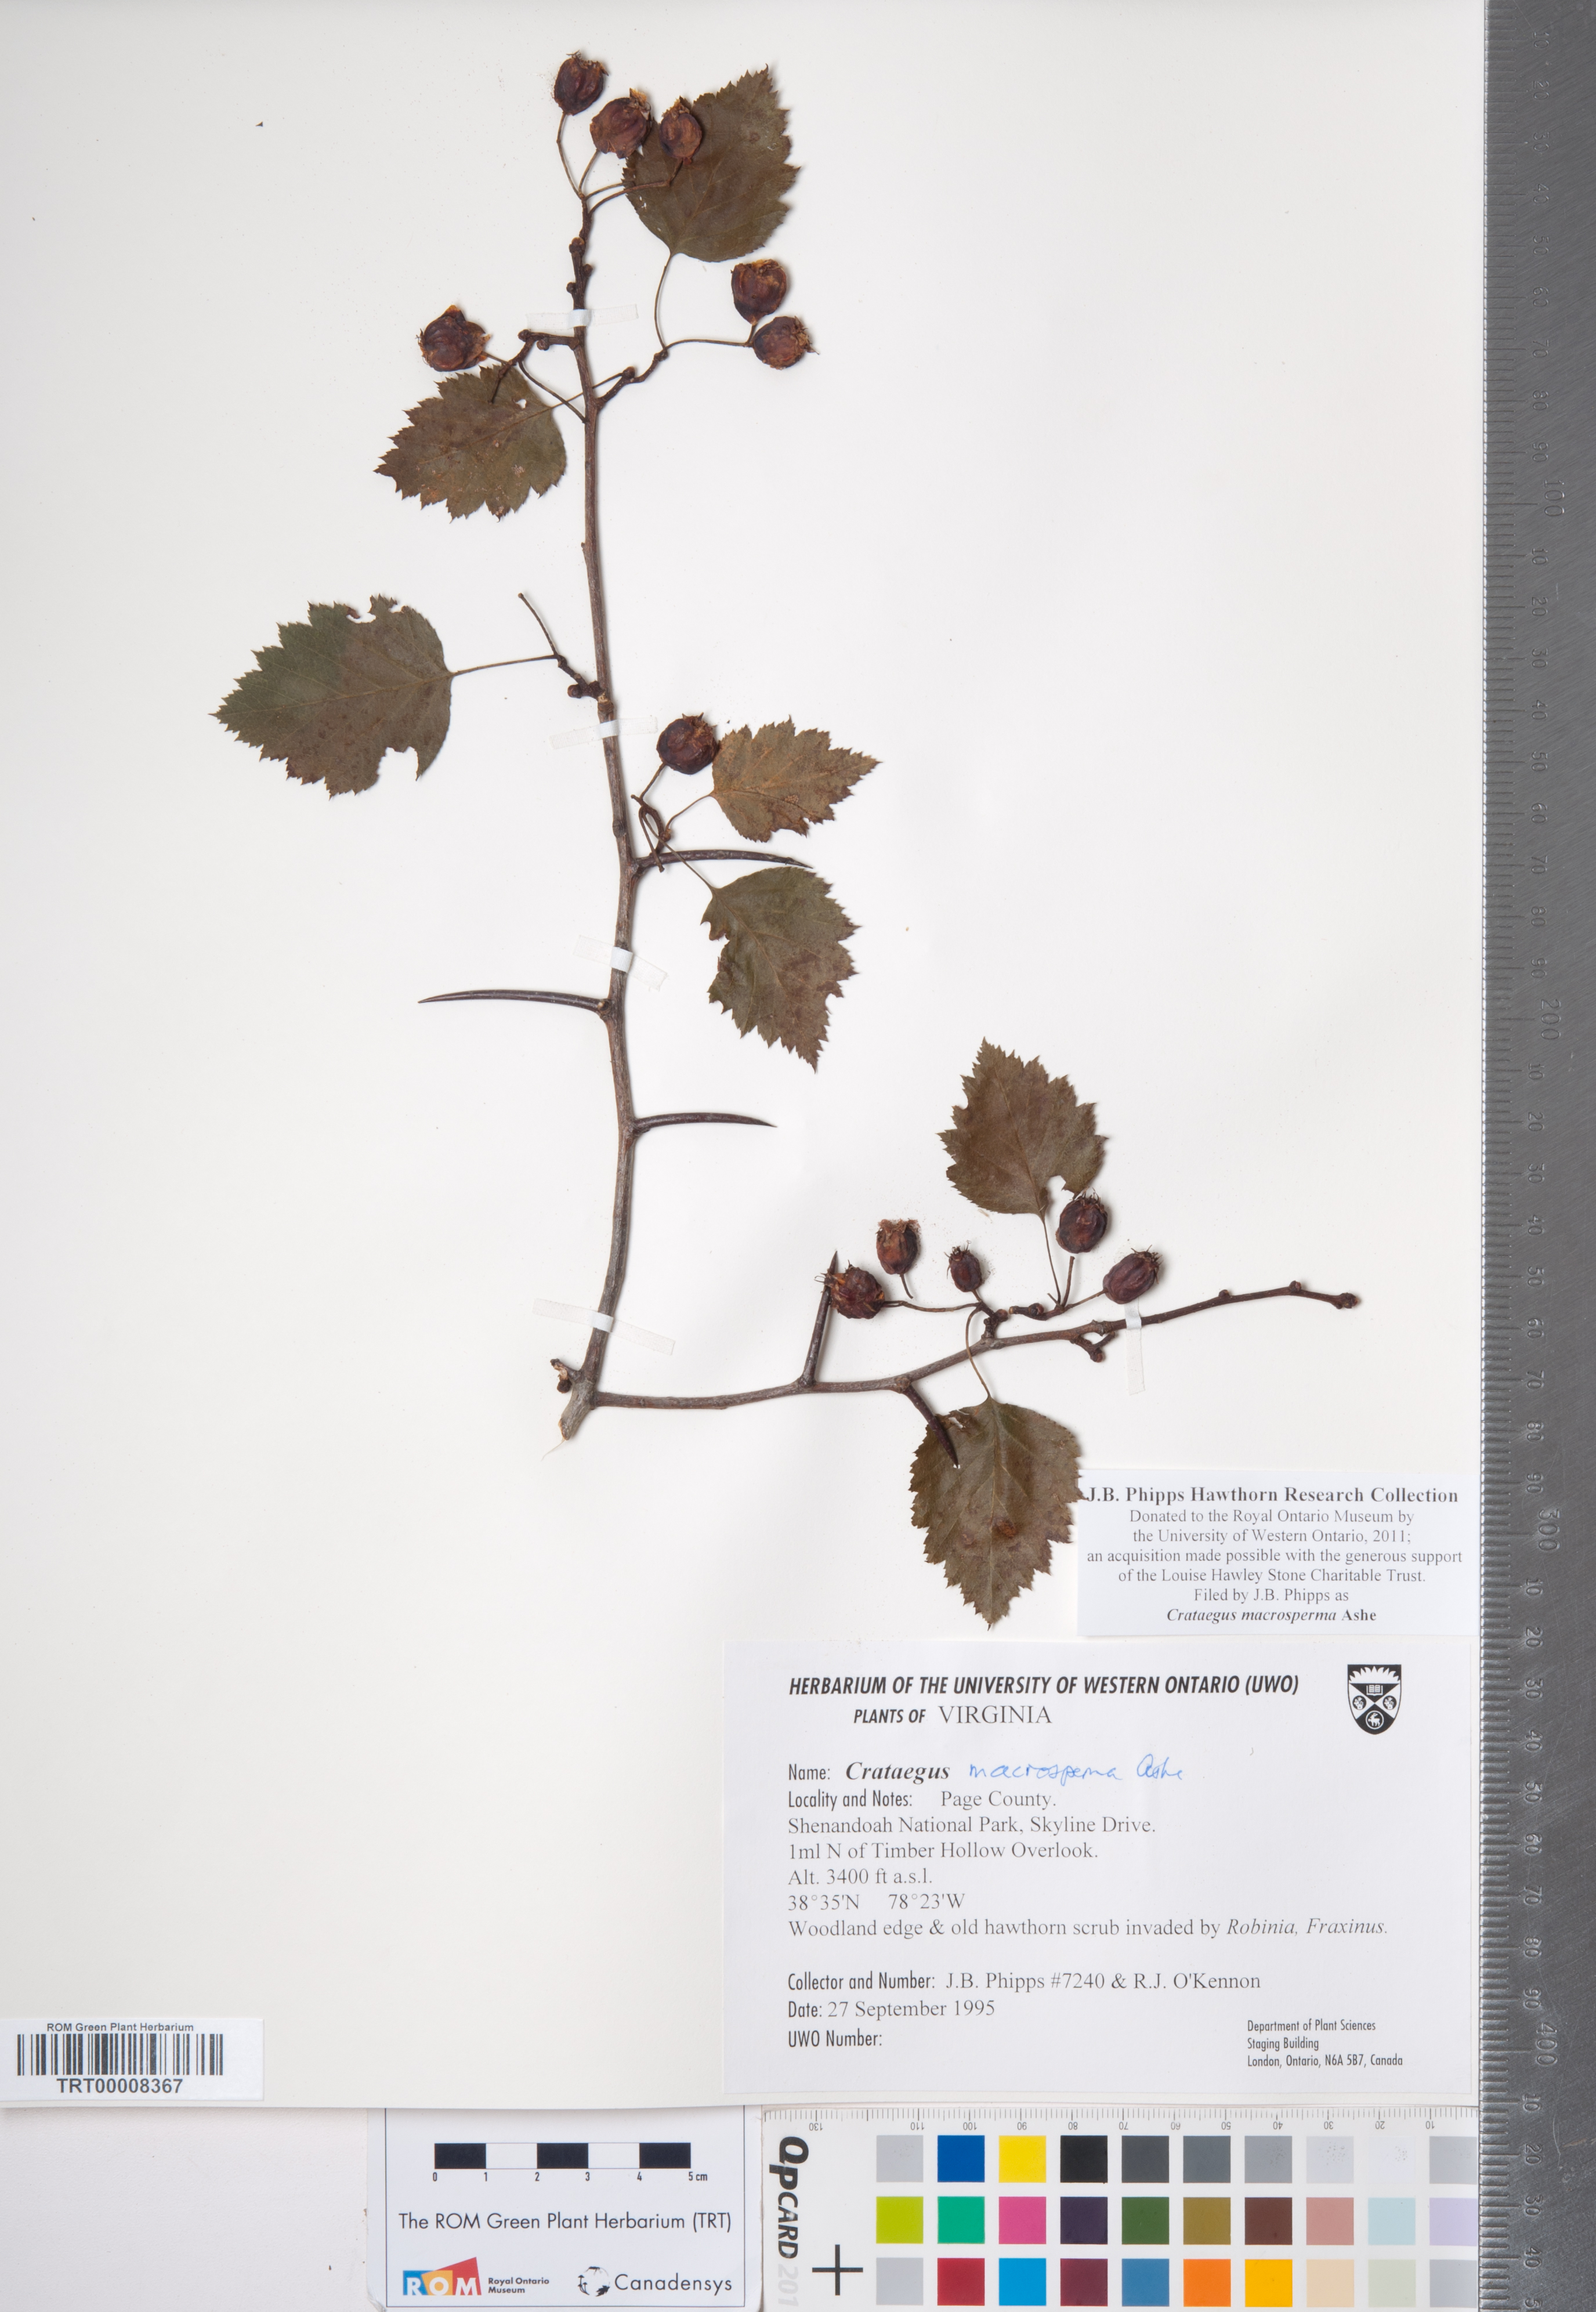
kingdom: Plantae
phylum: Tracheophyta
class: Magnoliopsida
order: Rosales
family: Rosaceae
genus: Crataegus
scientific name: Crataegus macrosperma
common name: Variable hawthorn
